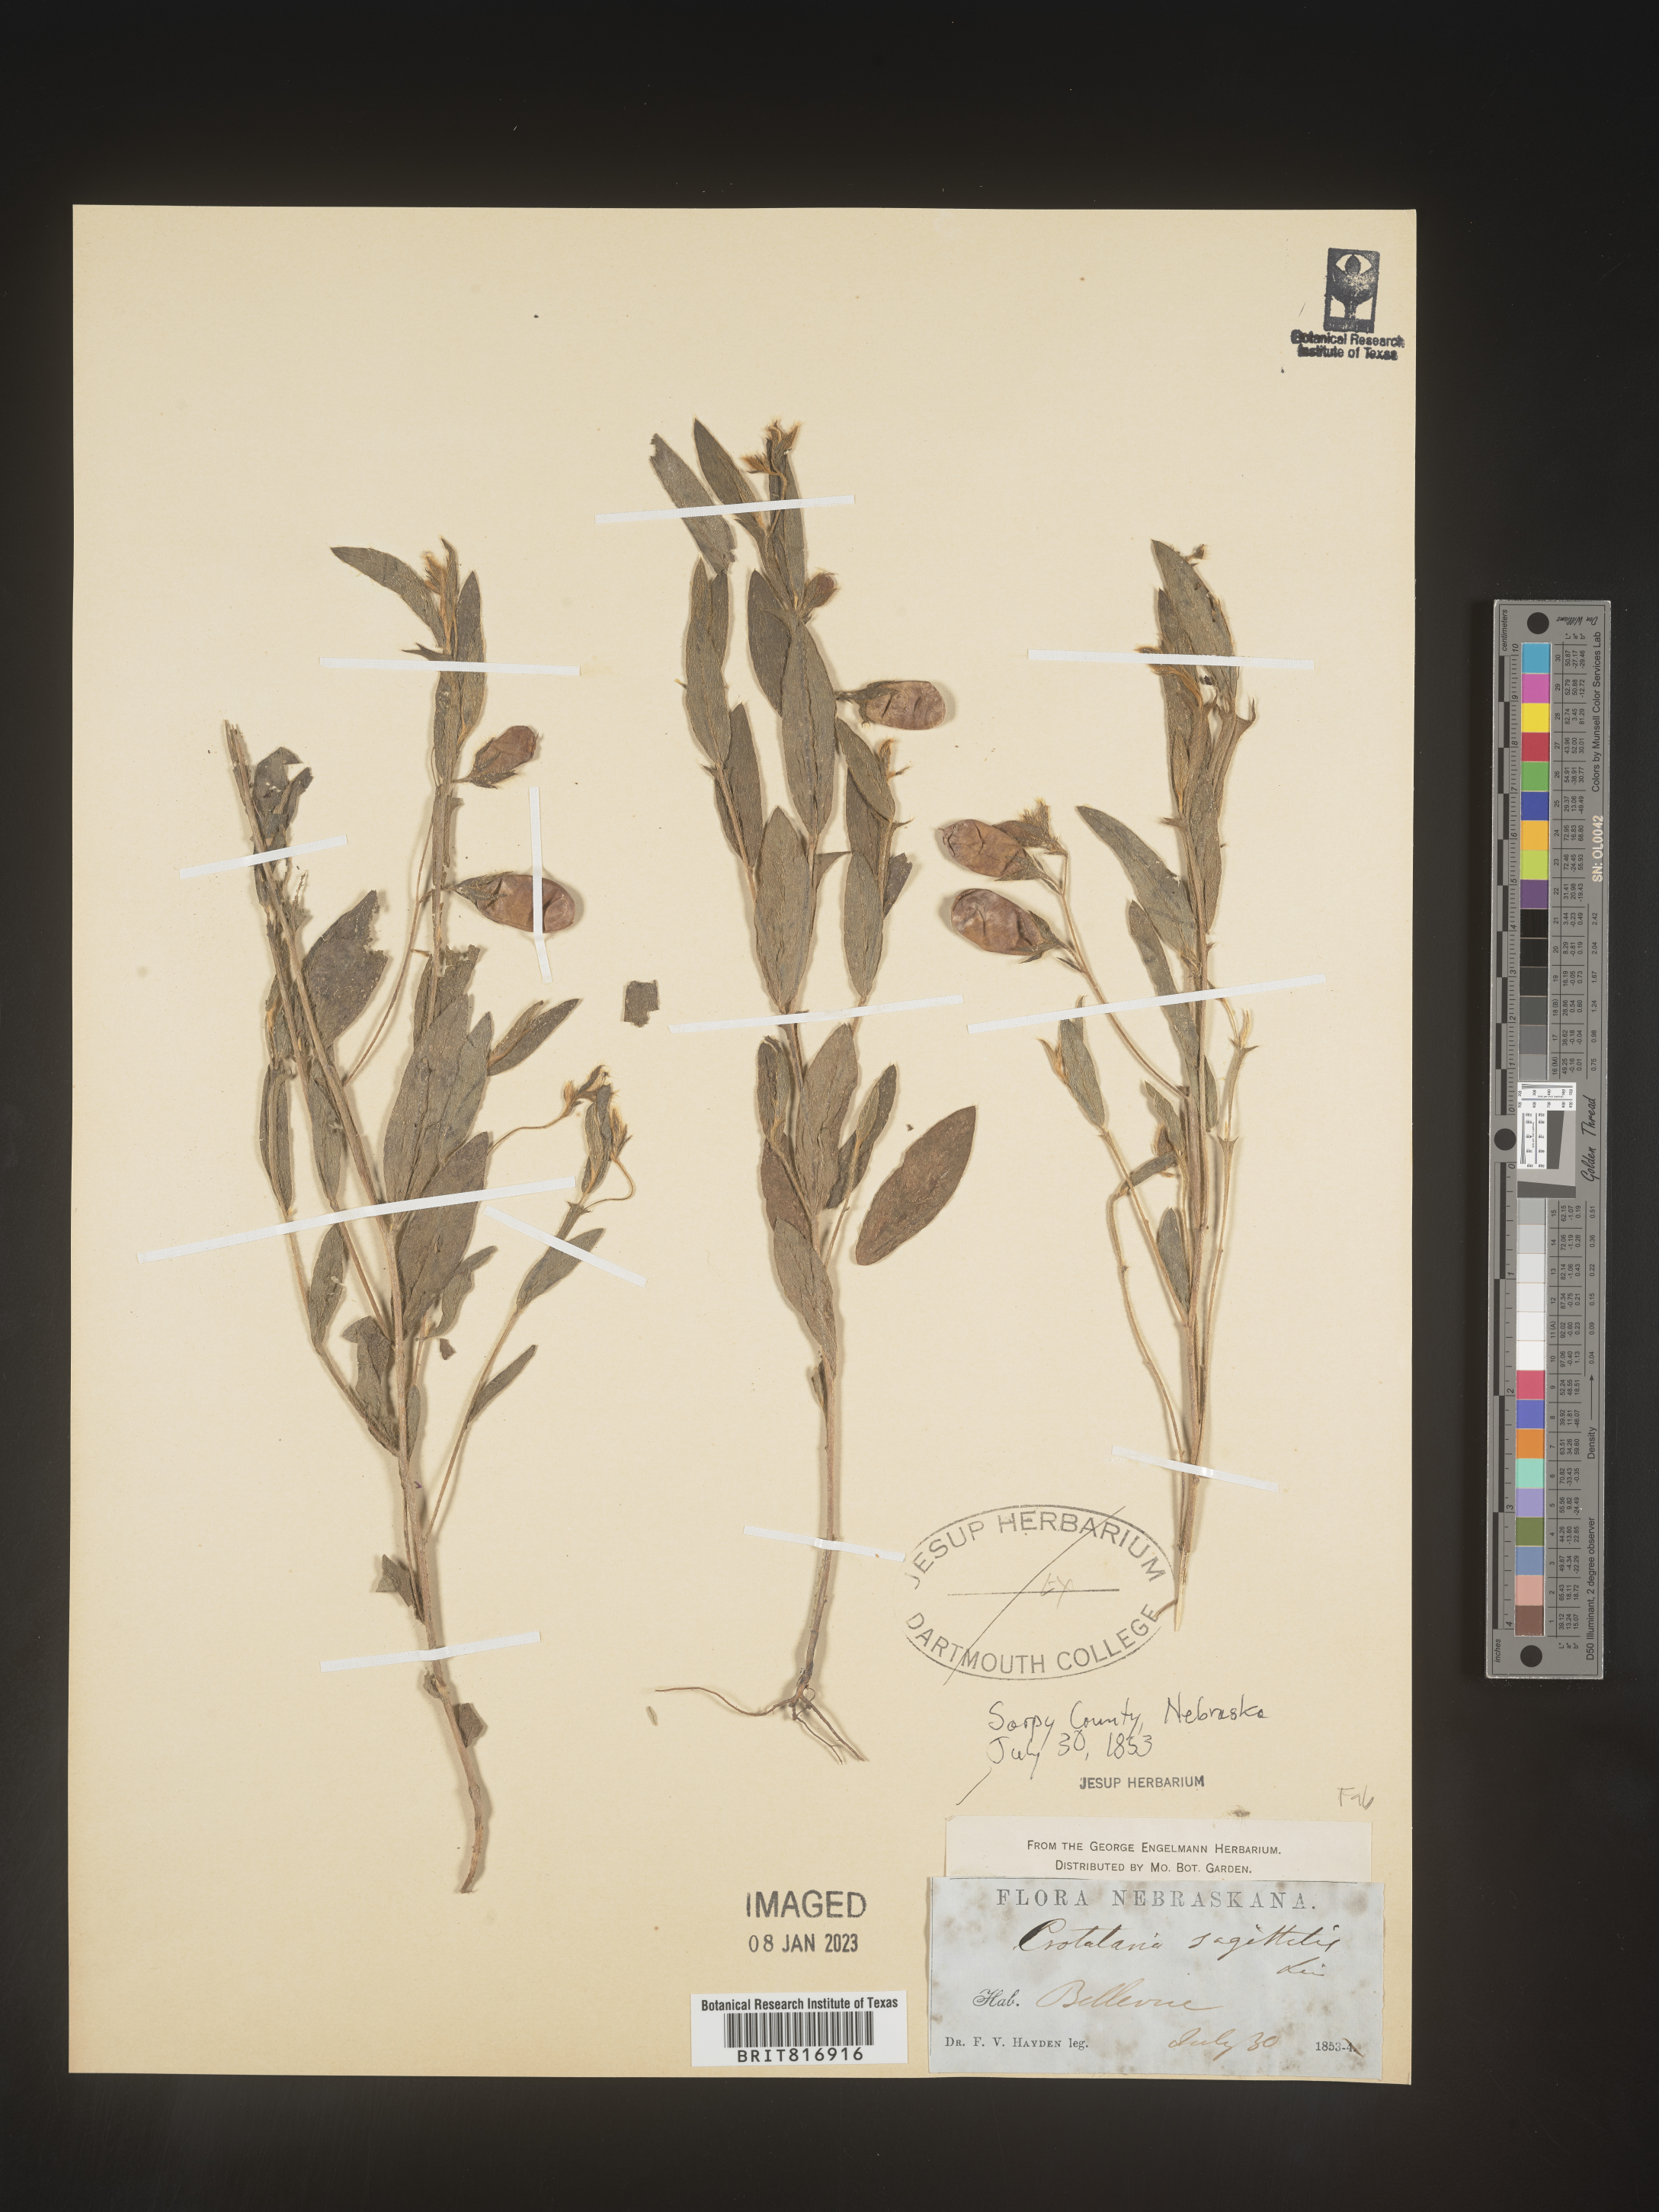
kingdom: Plantae
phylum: Tracheophyta
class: Magnoliopsida
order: Fabales
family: Fabaceae
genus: Crotalaria
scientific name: Crotalaria sagittalis
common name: Arrowhead rattlebox
